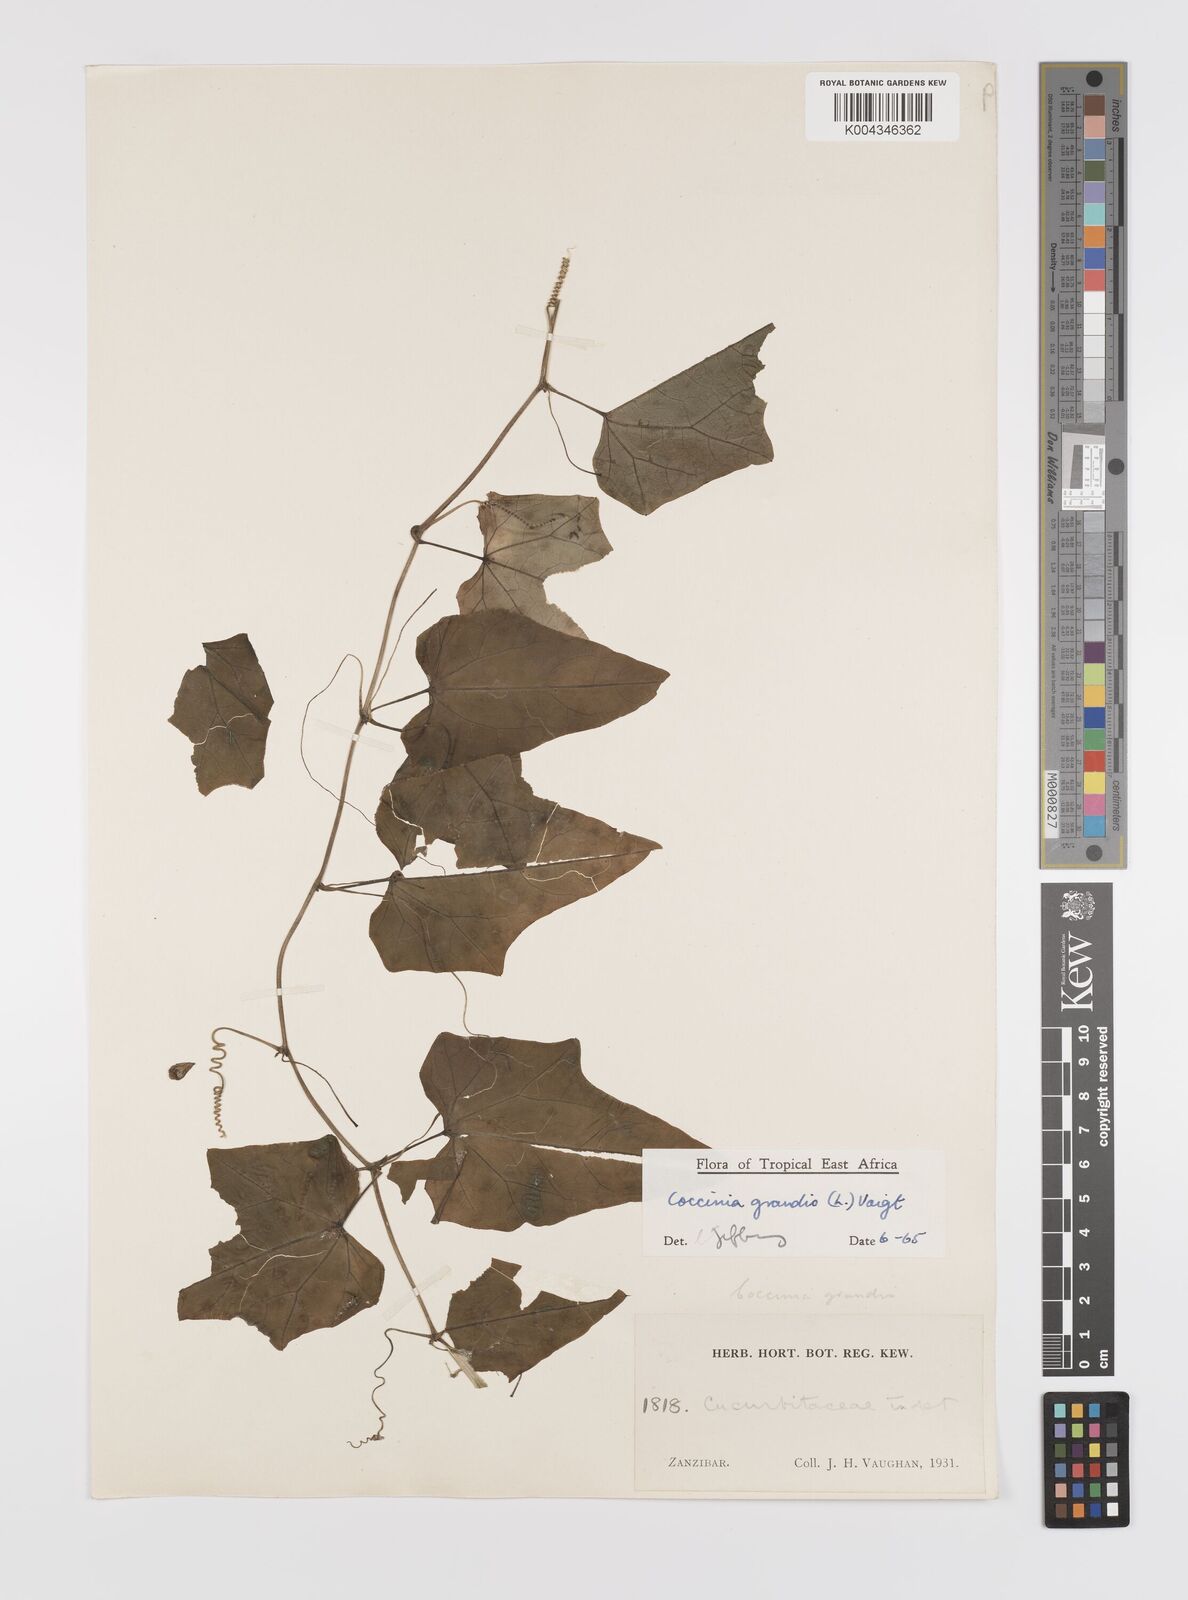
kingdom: Plantae
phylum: Tracheophyta
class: Magnoliopsida
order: Cucurbitales
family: Cucurbitaceae
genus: Coccinia
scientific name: Coccinia grandis
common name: Ivy gourd
